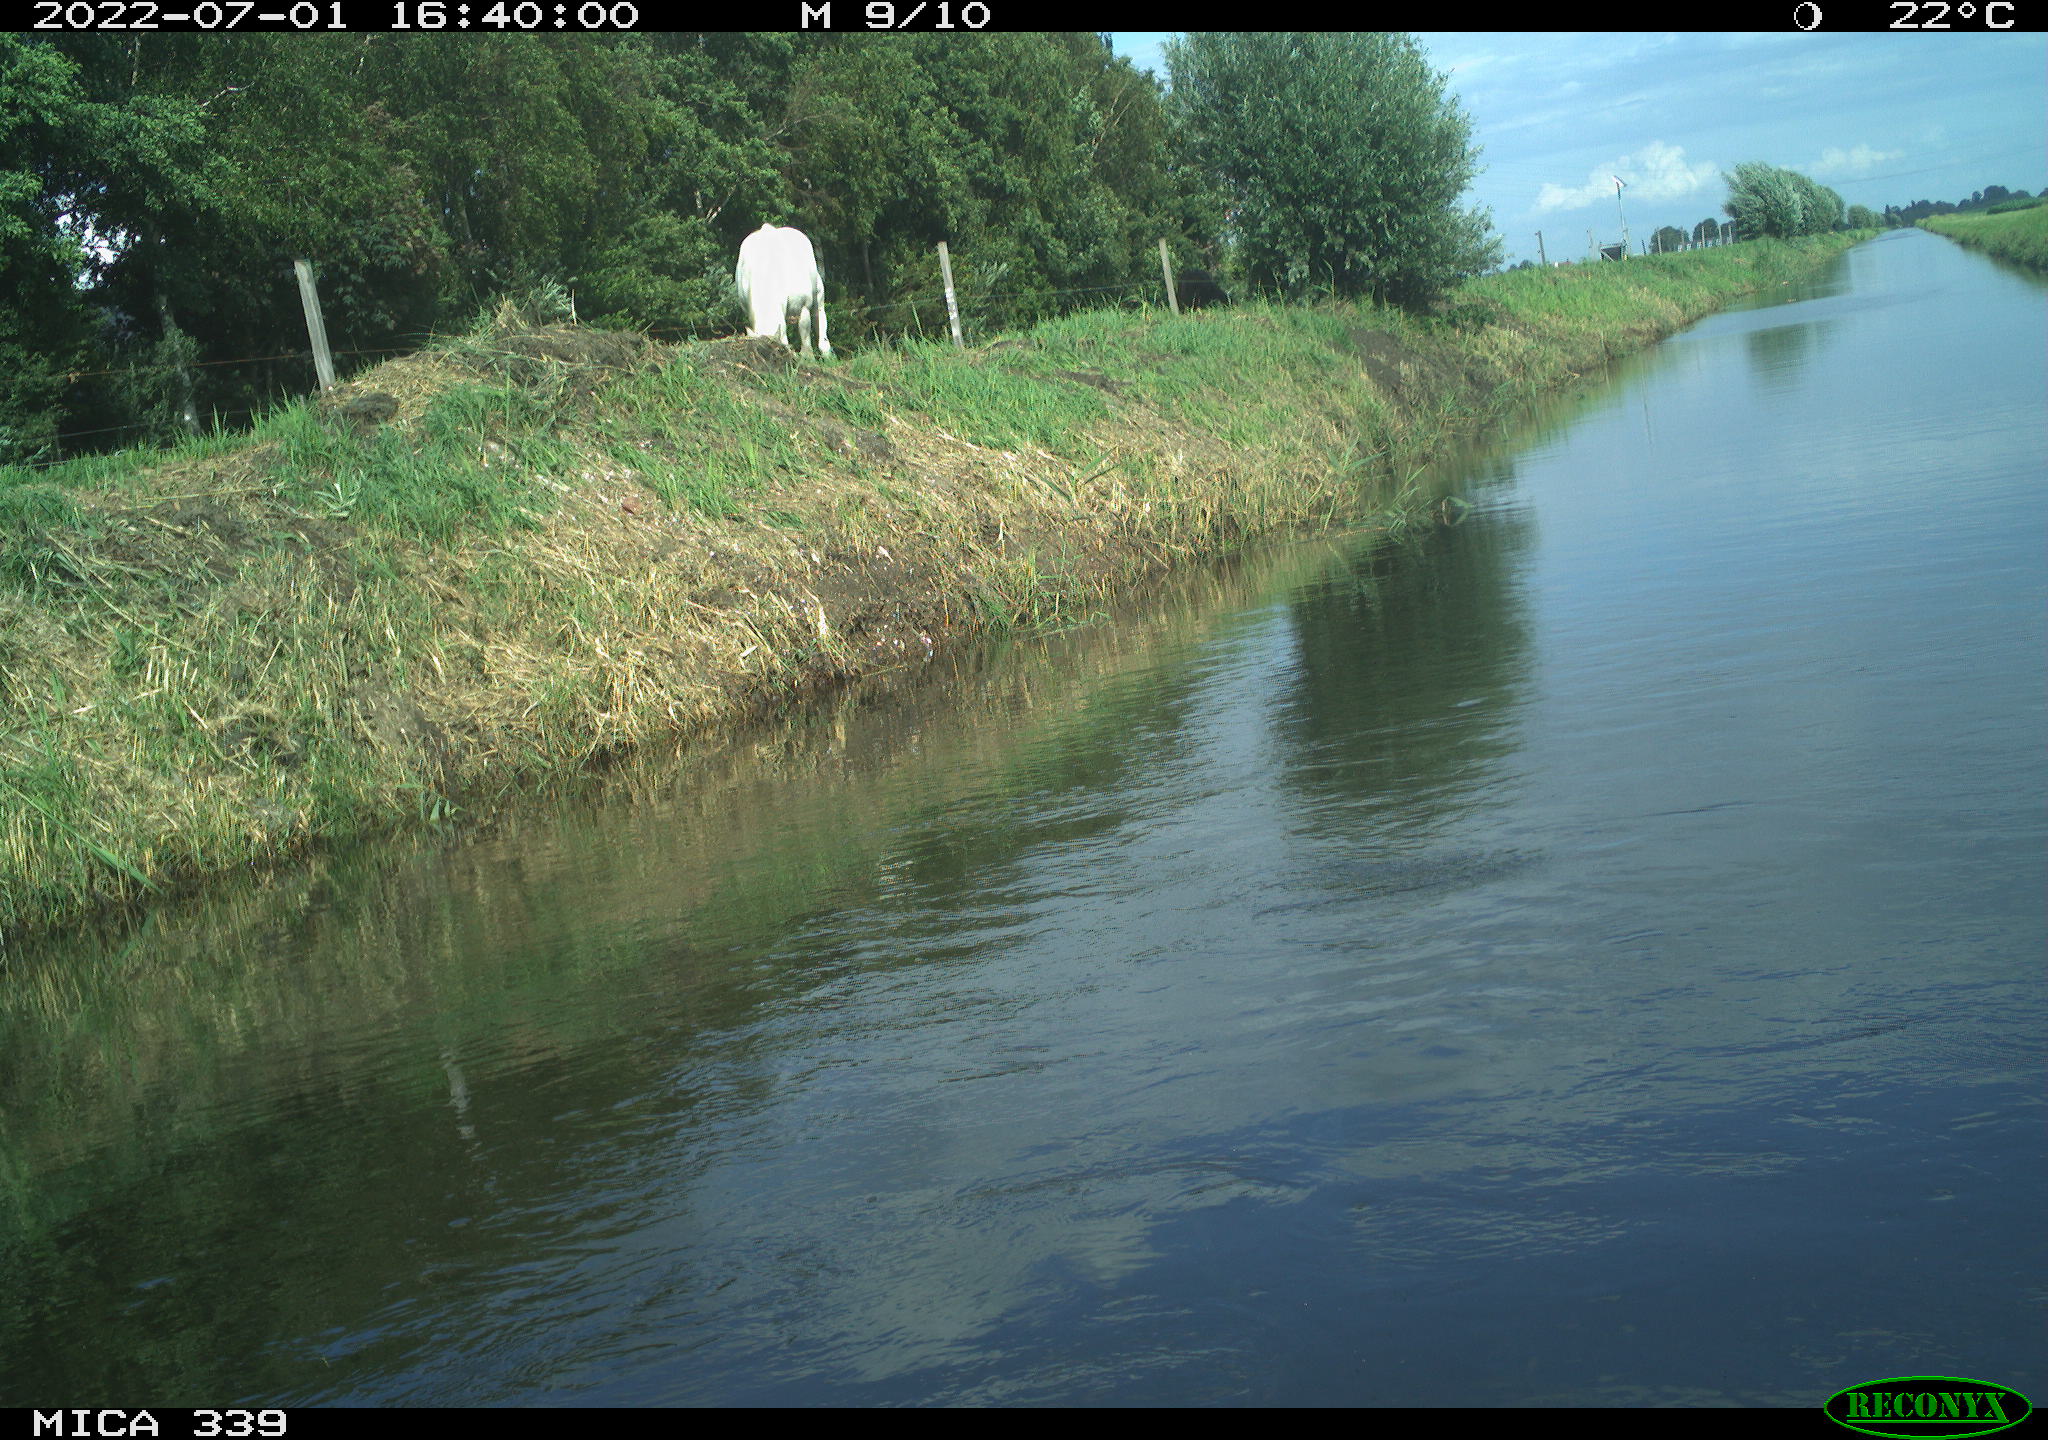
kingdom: Animalia
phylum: Chordata
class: Mammalia
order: Perissodactyla
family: Equidae
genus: Equus
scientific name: Equus caballus
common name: Horse
